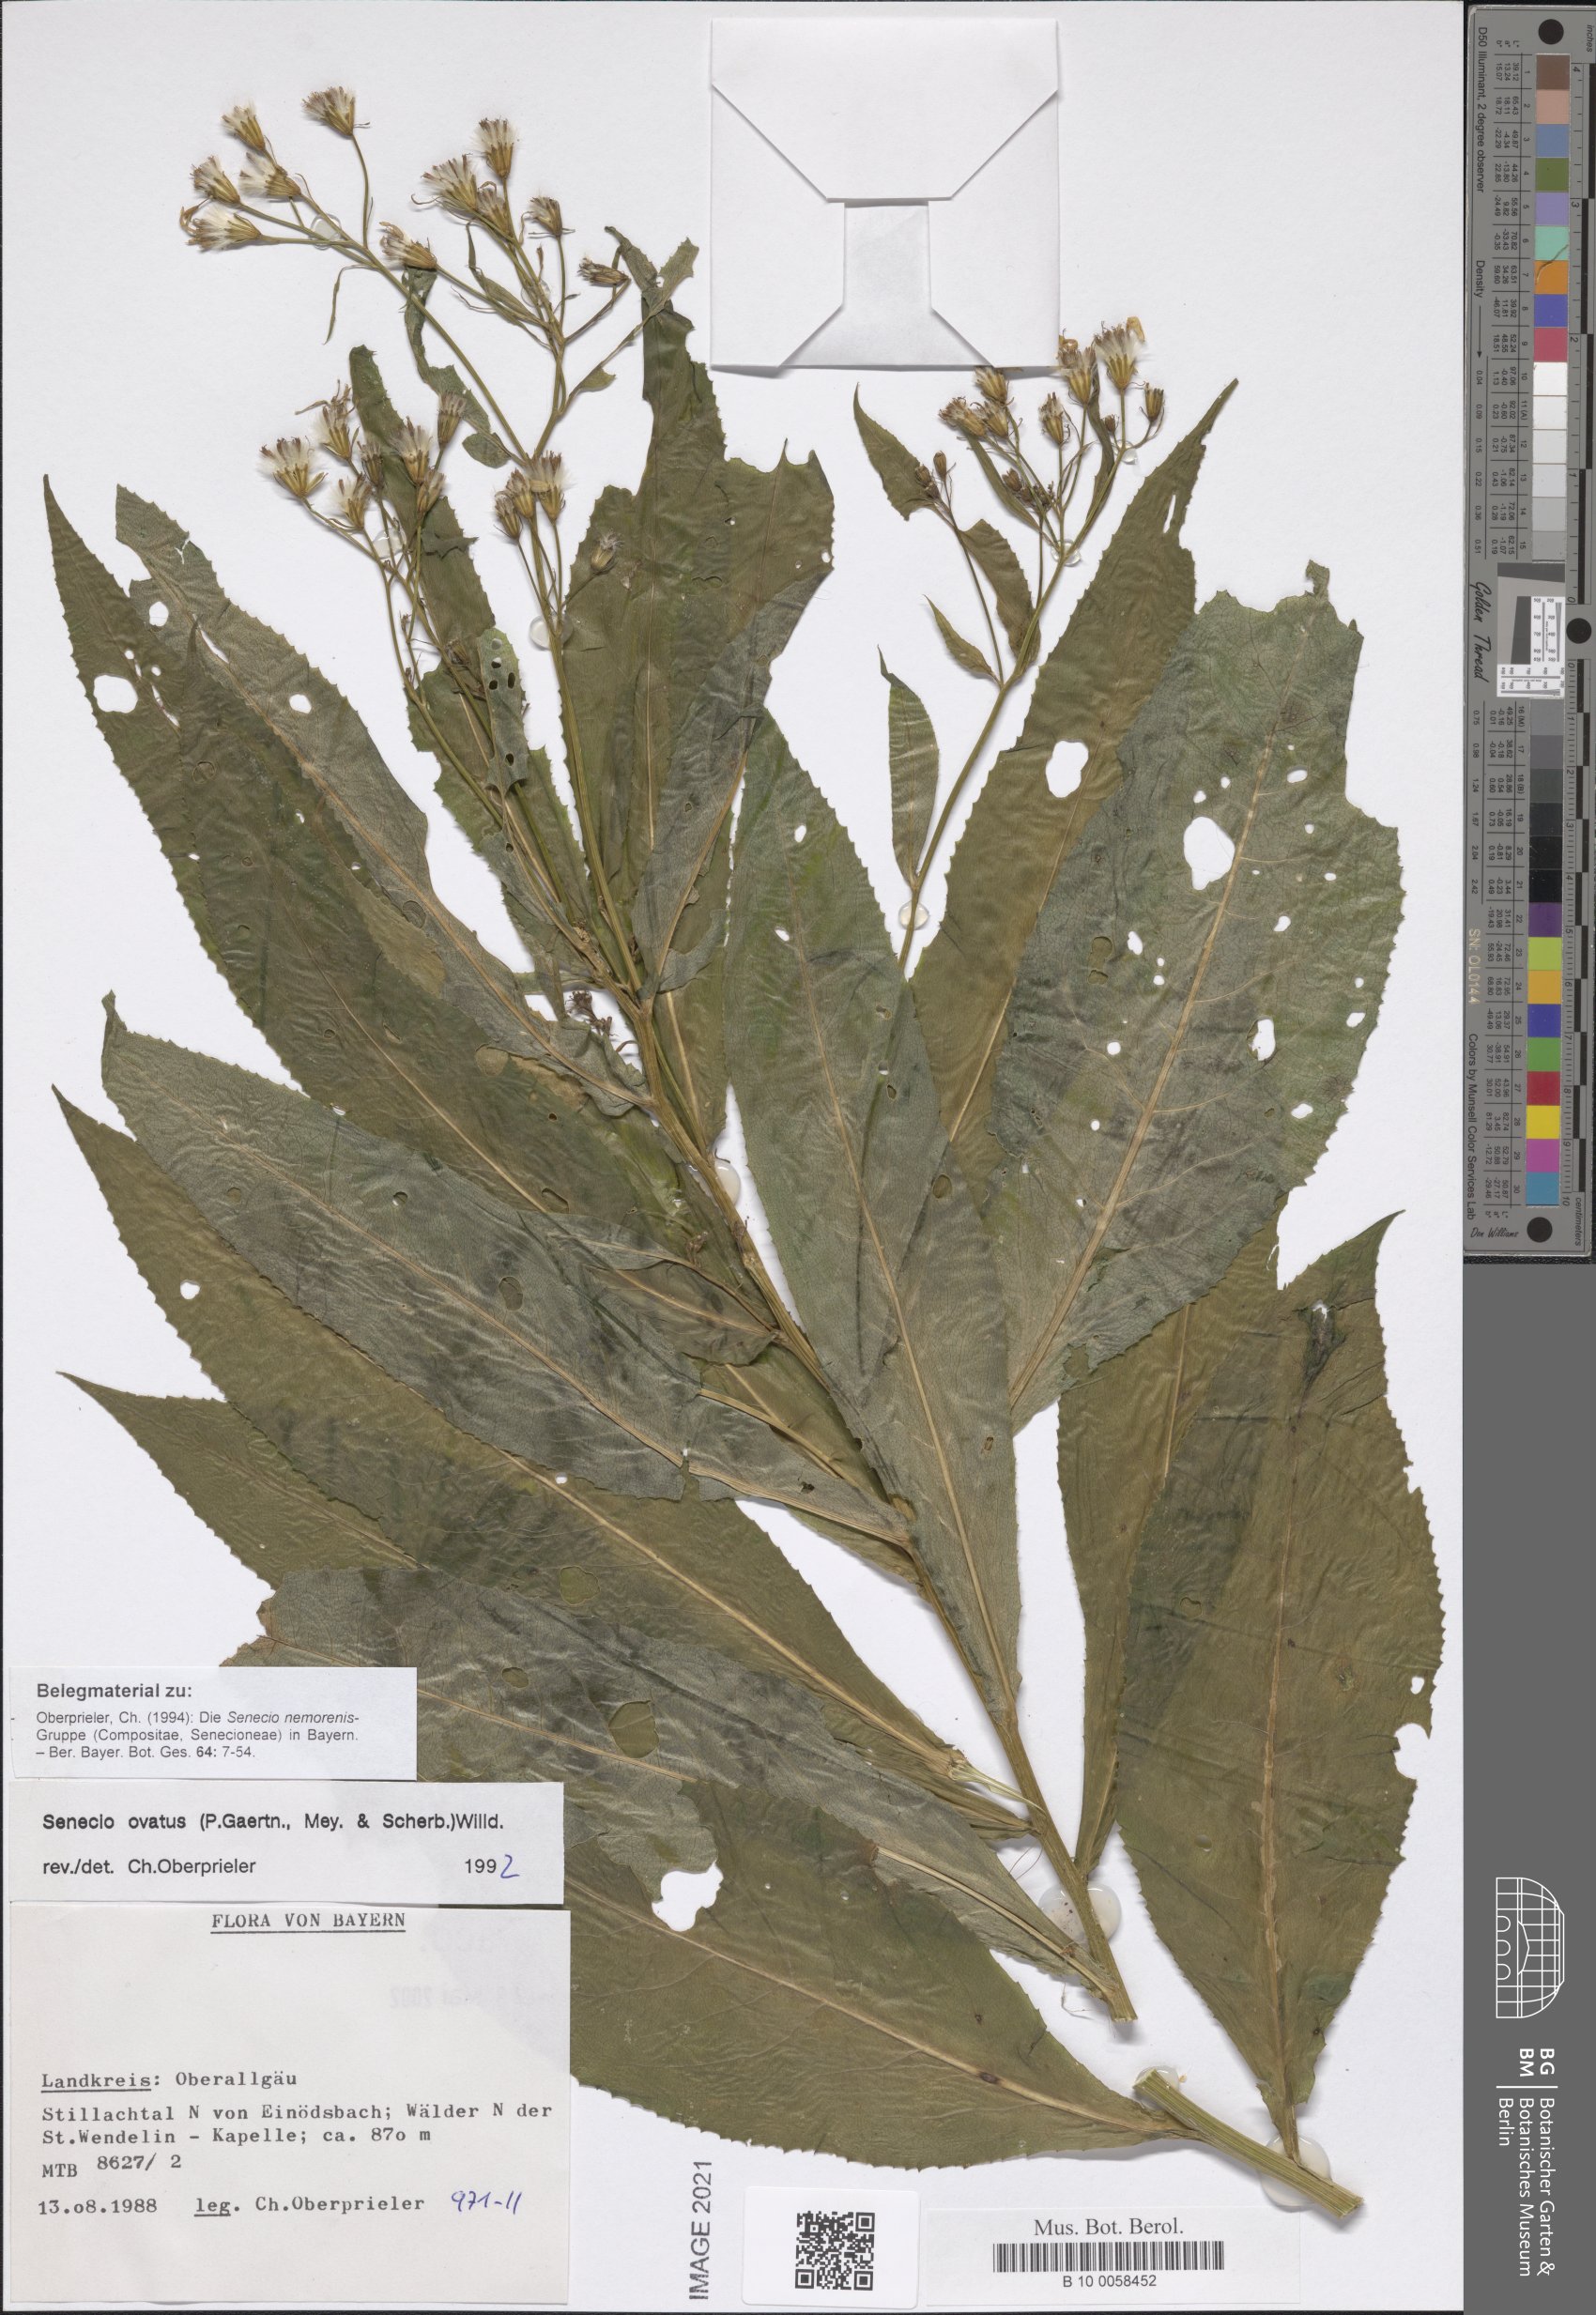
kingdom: Plantae
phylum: Tracheophyta
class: Magnoliopsida
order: Asterales
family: Asteraceae
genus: Senecio
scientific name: Senecio ovatus
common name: Wood ragwort
